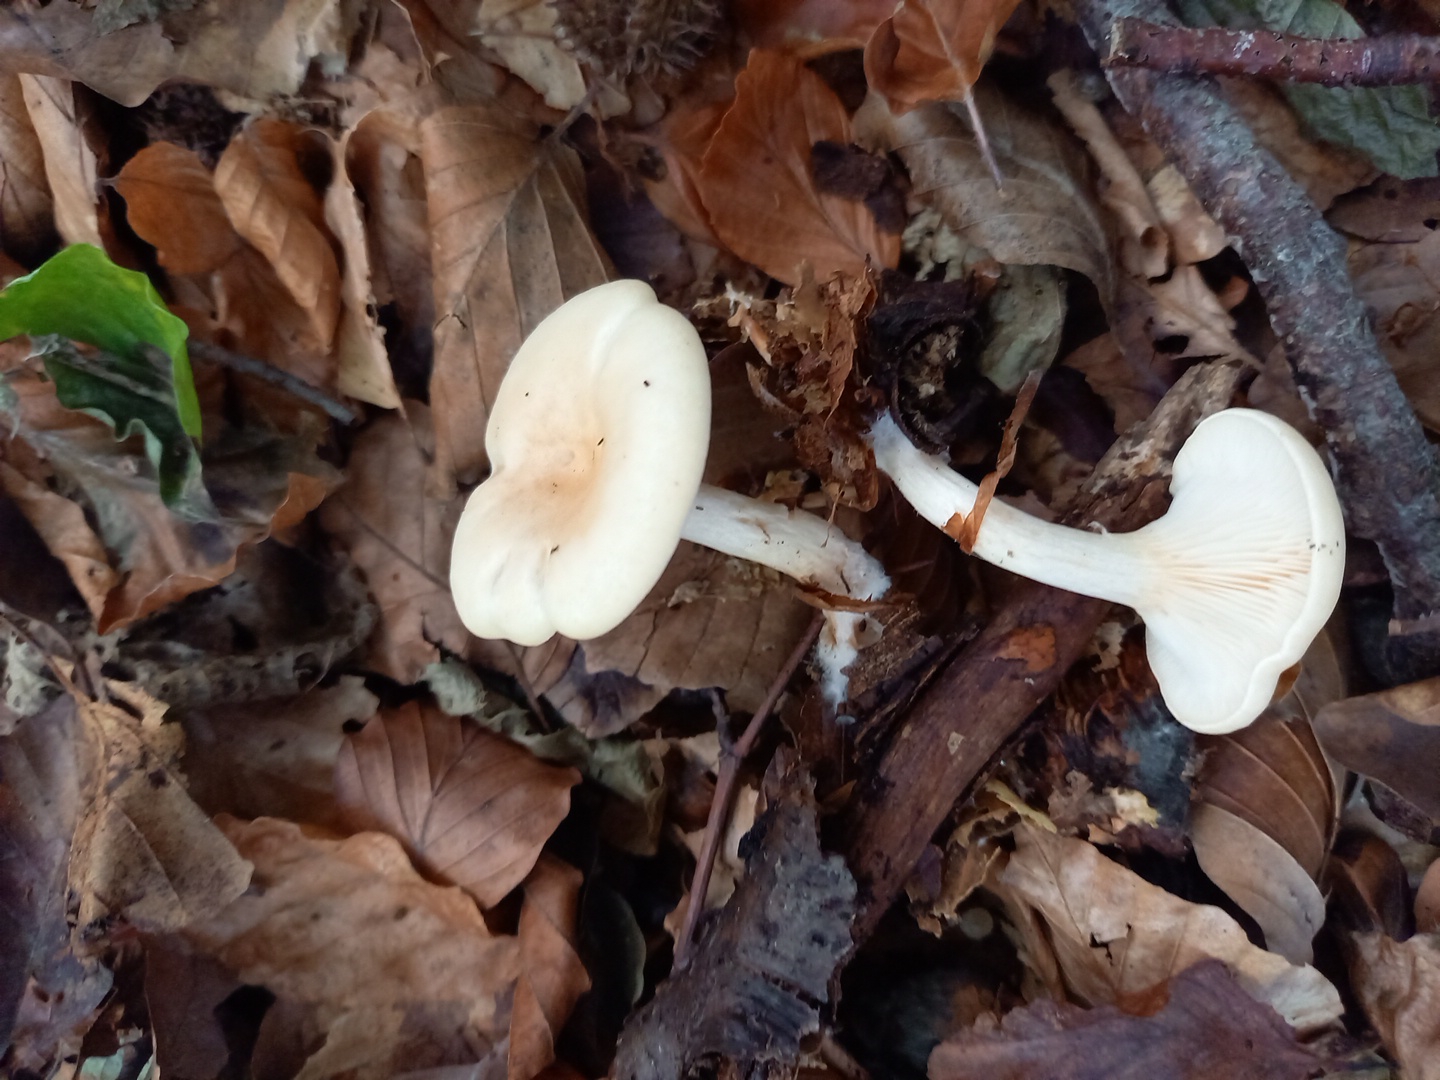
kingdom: Fungi
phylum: Basidiomycota
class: Agaricomycetes
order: Agaricales
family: Tricholomataceae
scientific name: Tricholomataceae
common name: ridderhatfamilien
